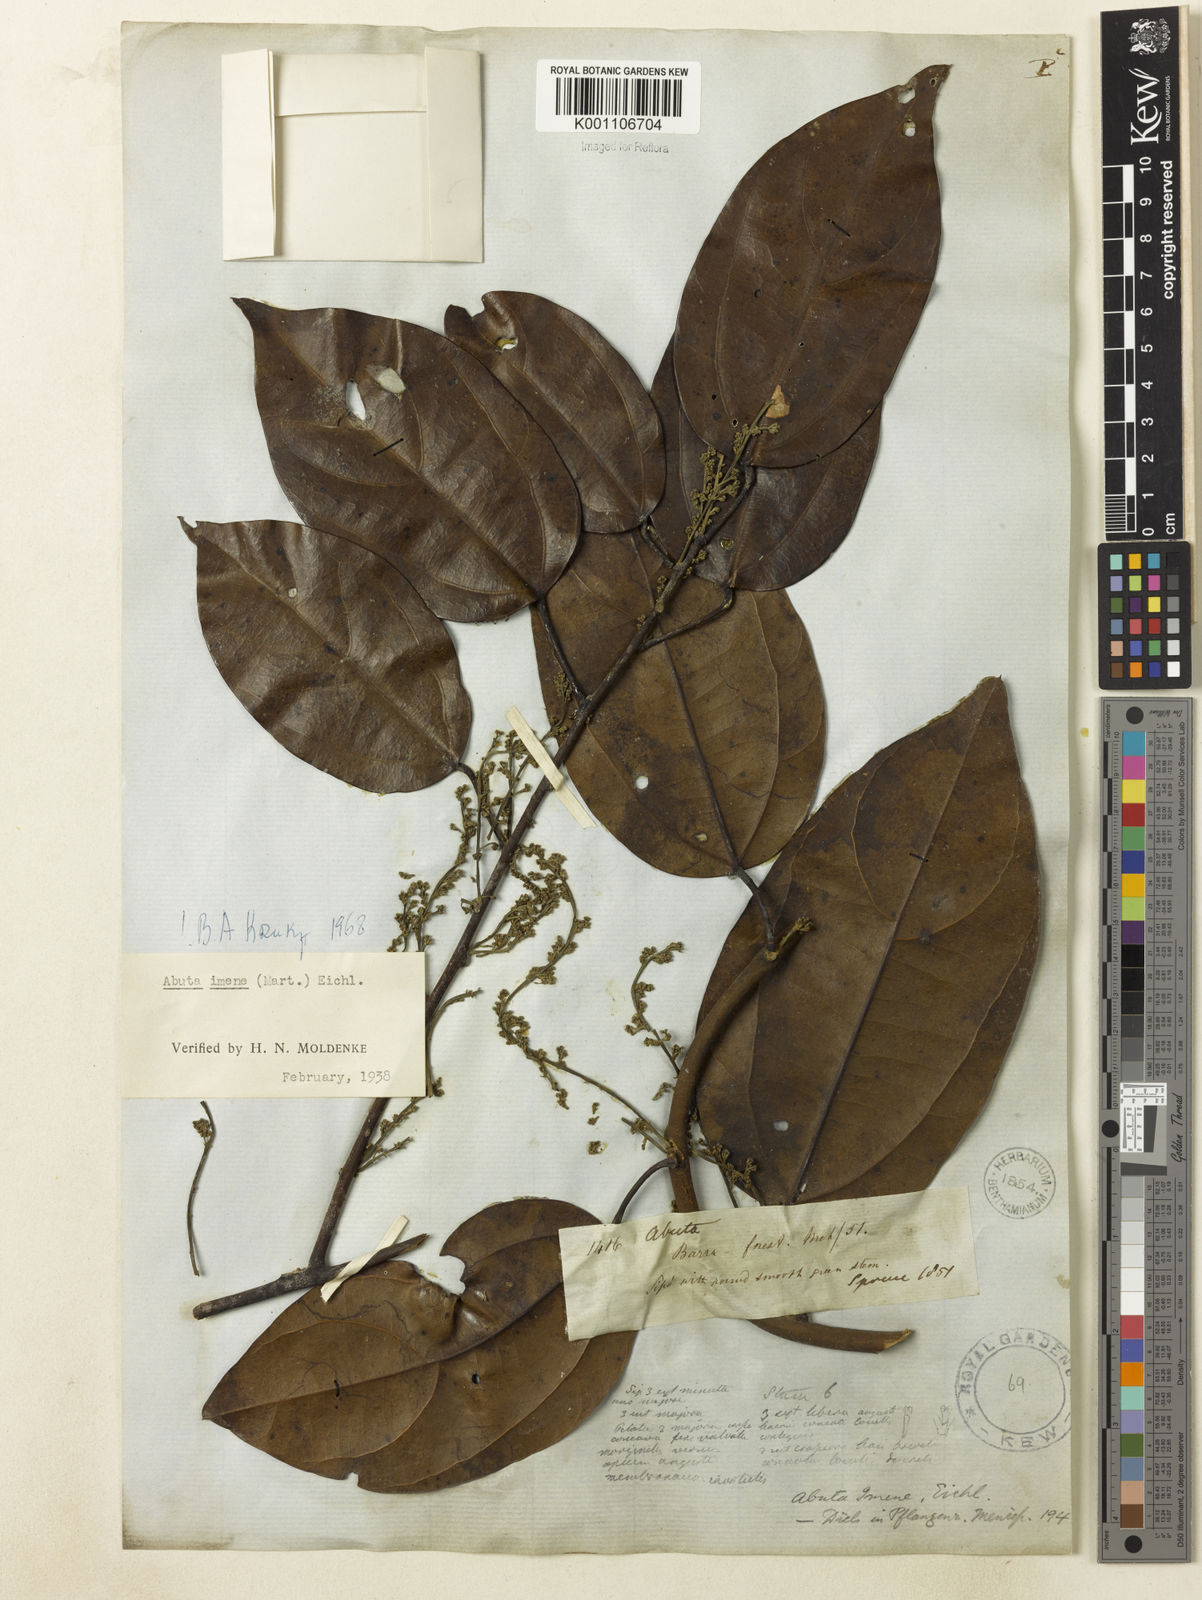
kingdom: Plantae
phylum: Tracheophyta
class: Magnoliopsida
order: Ranunculales
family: Menispermaceae
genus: Abuta
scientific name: Abuta imene
